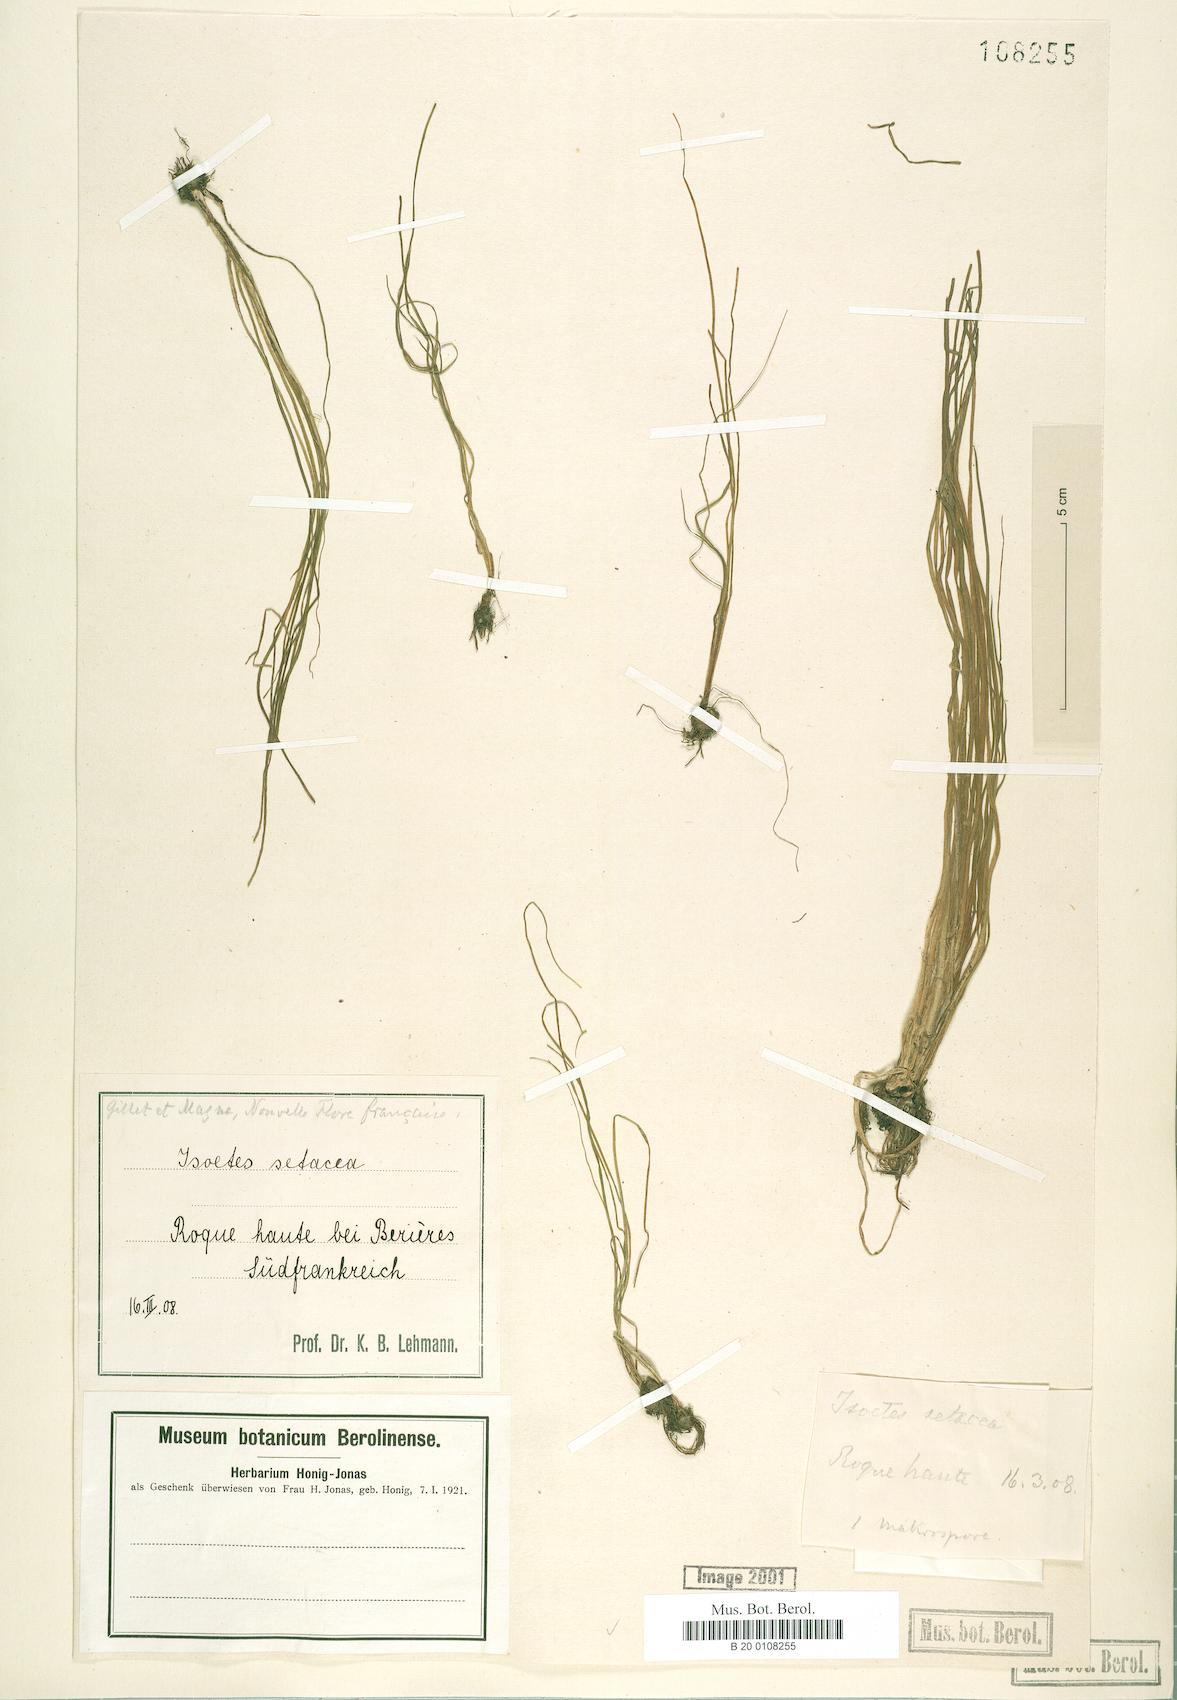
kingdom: Plantae
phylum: Tracheophyta
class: Lycopodiopsida
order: Isoetales
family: Isoetaceae
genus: Isoetes
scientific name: Isoetes lacustris
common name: Common quillwort
